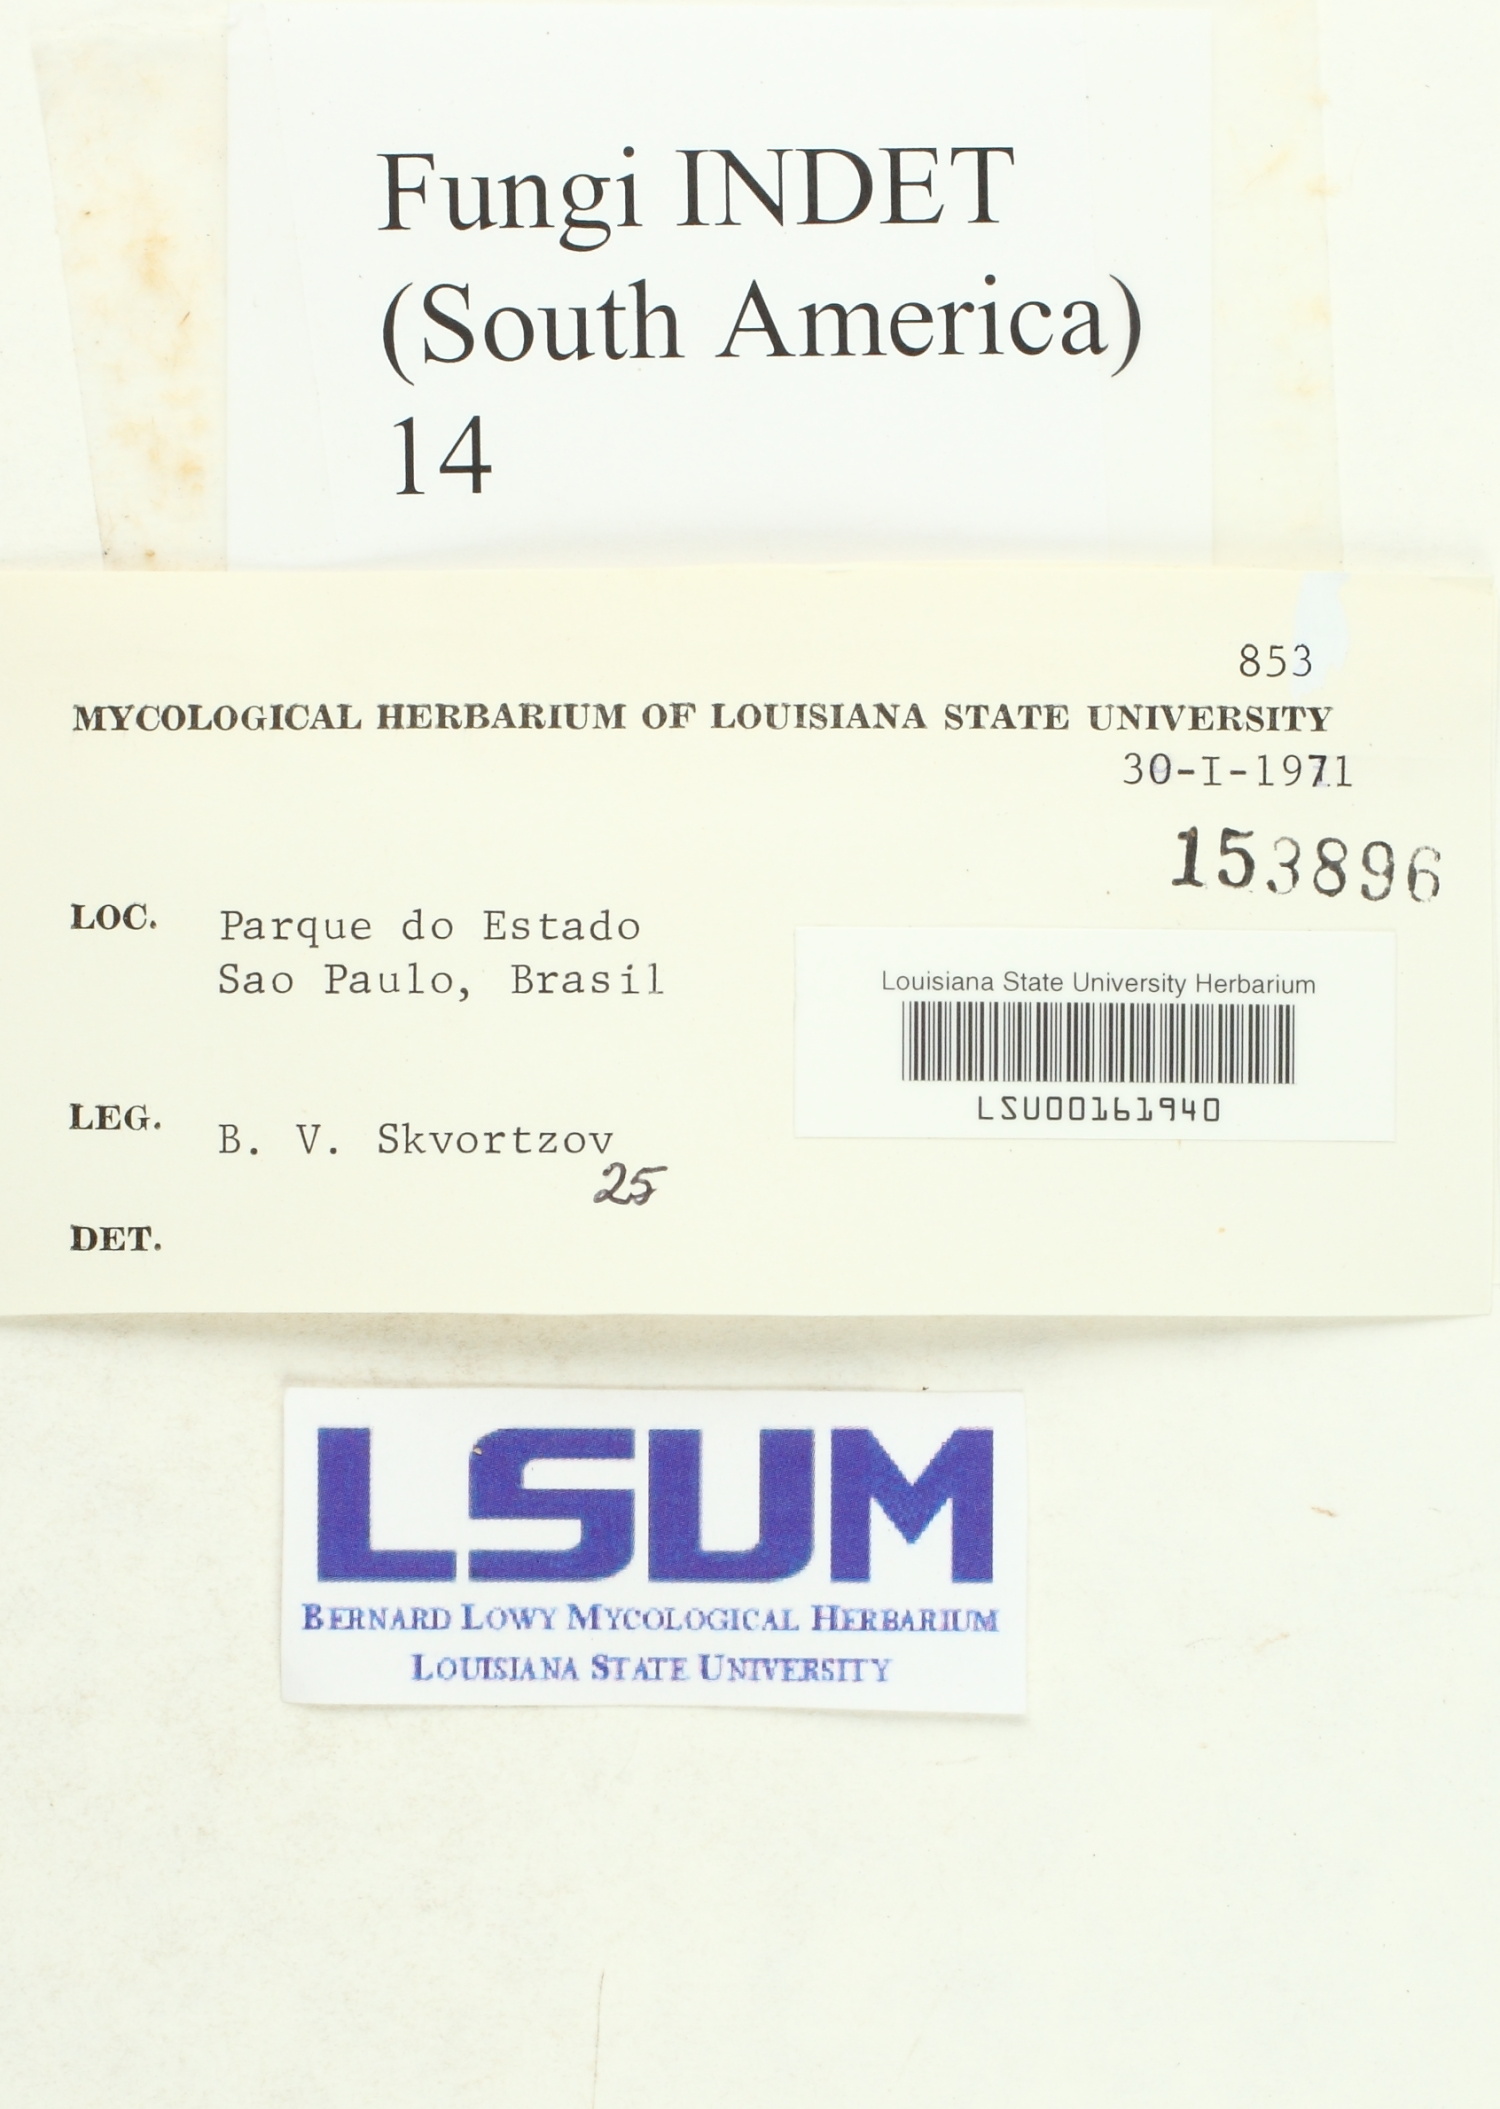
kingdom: Fungi
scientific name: Fungi
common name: Fungi
